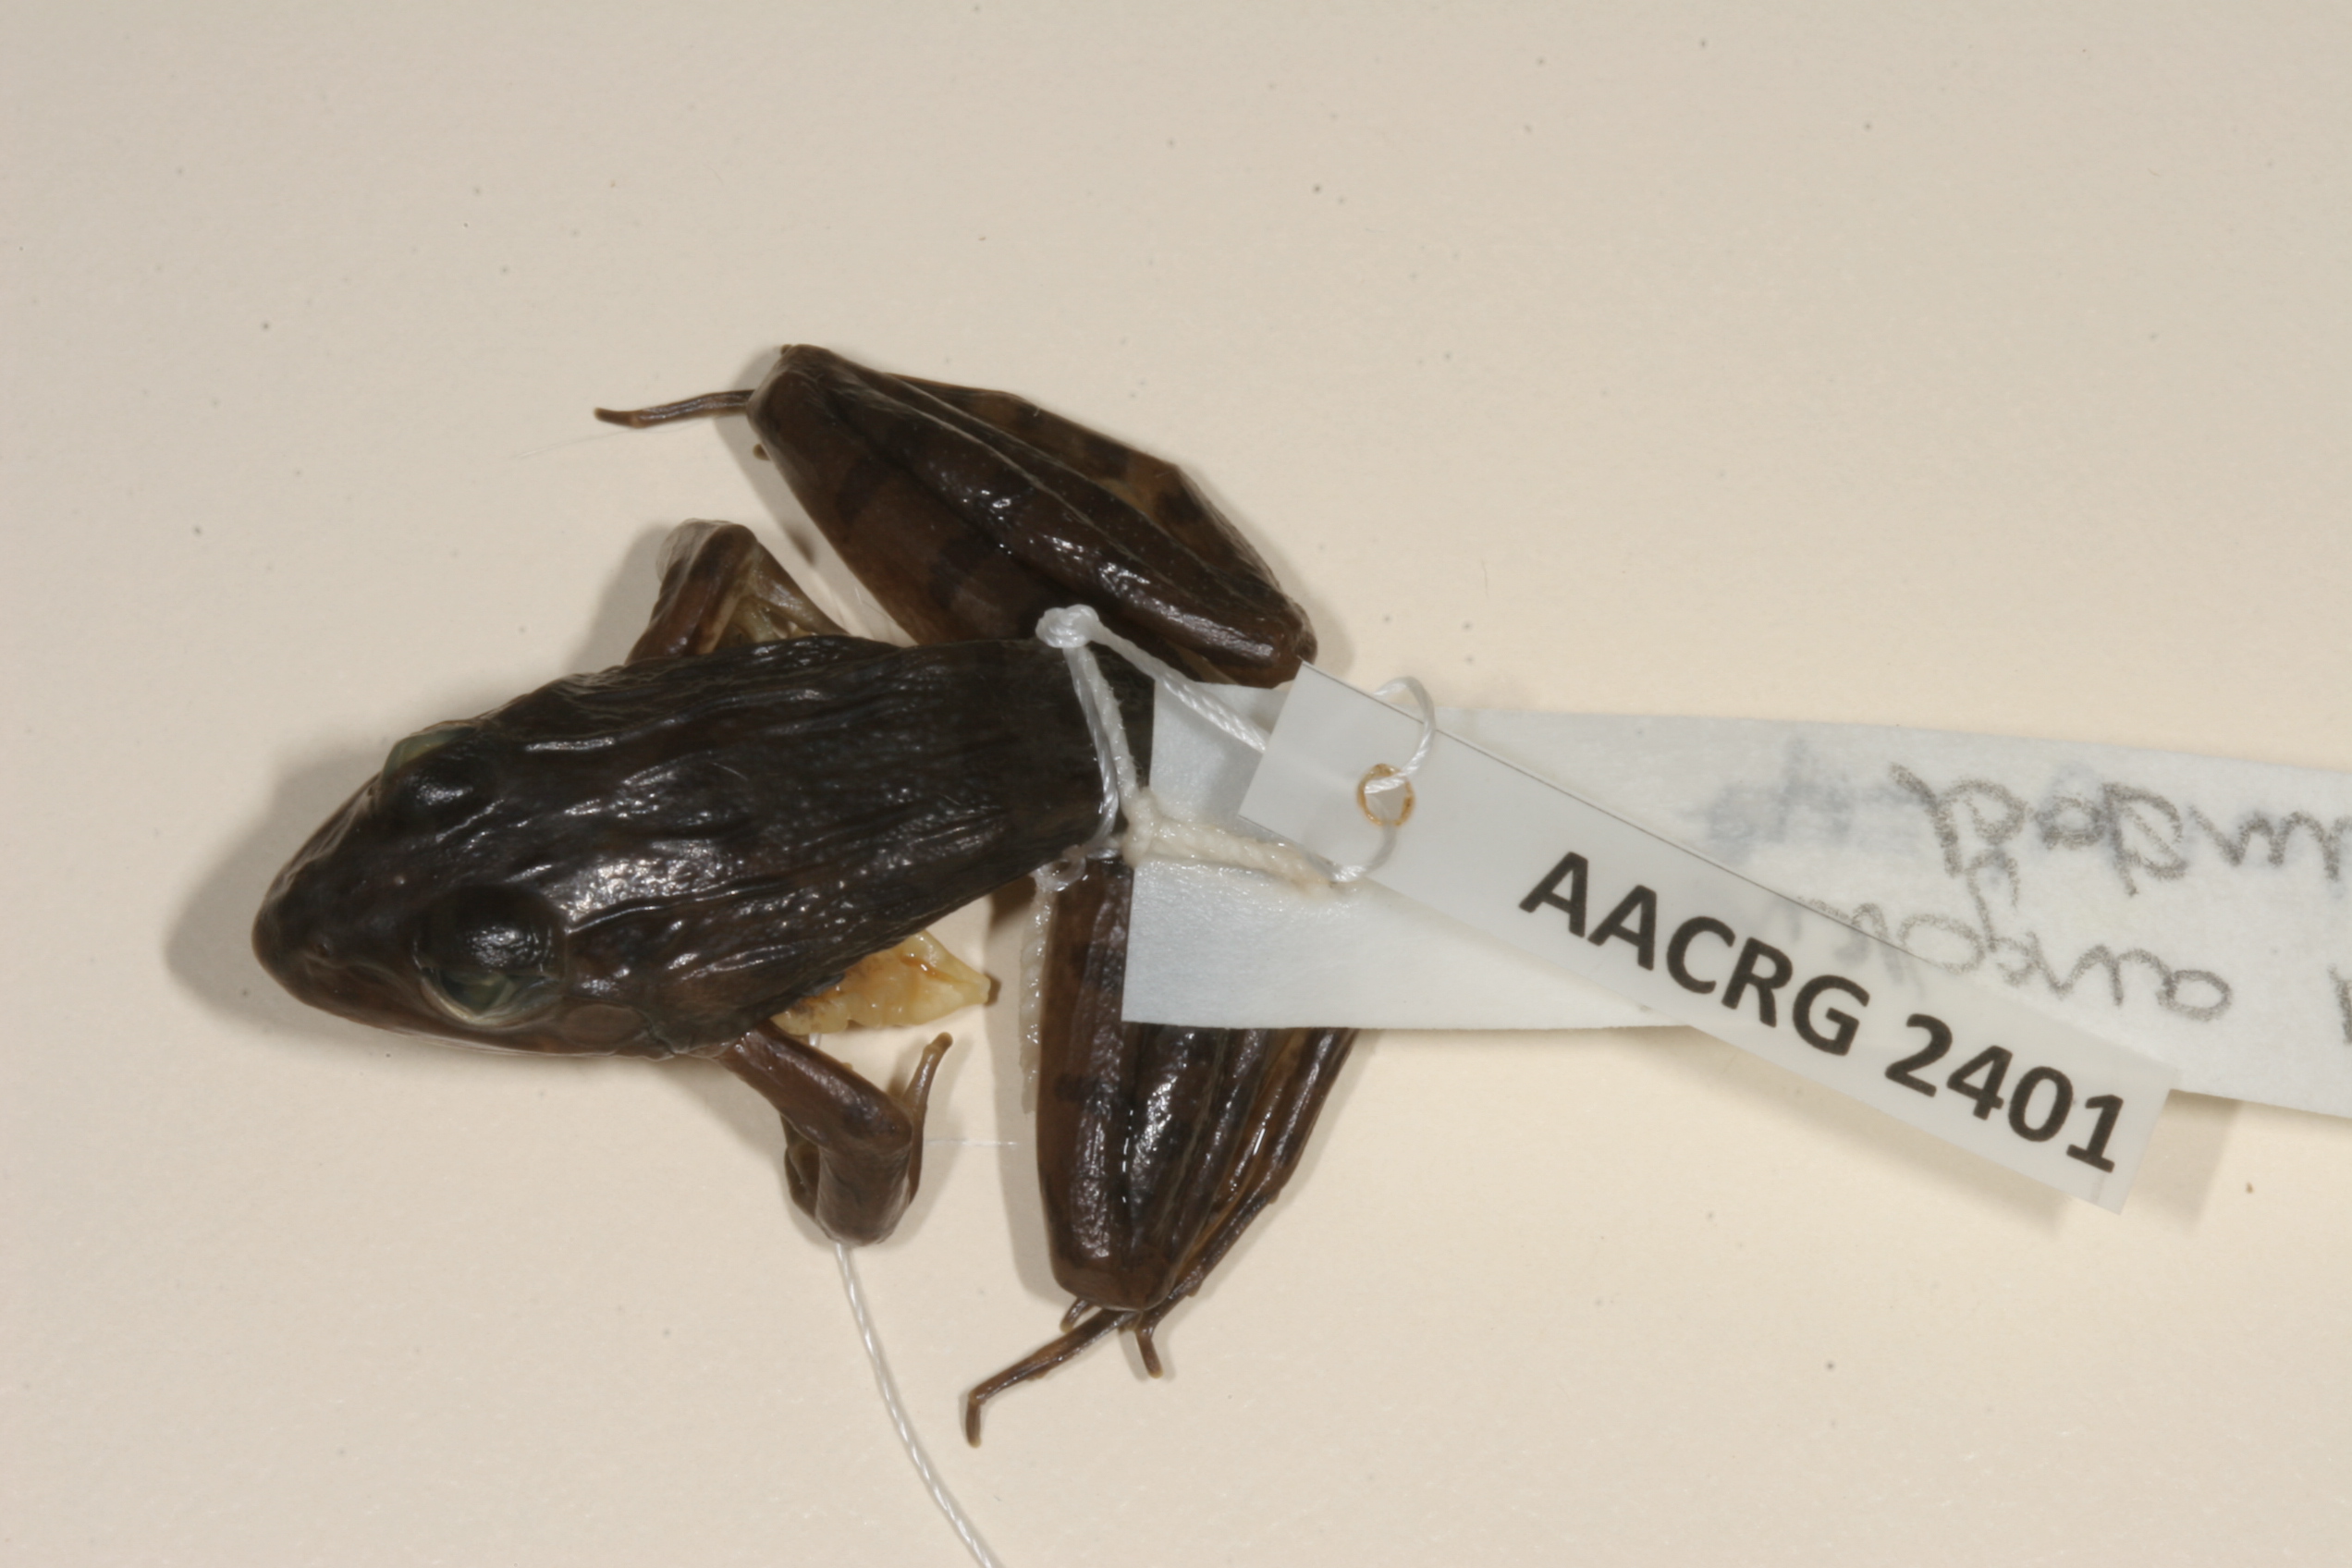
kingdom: Animalia
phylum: Chordata
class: Amphibia
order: Anura
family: Pyxicephalidae
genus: Amietia
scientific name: Amietia delalandii
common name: Delalande's river frog
